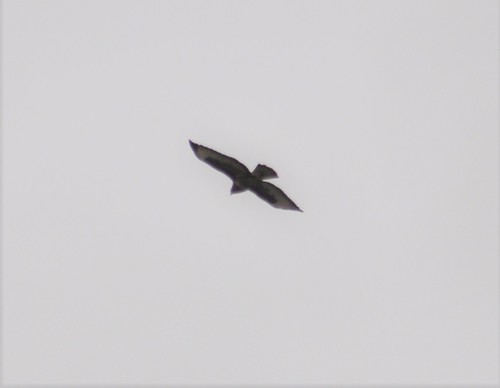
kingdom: Animalia
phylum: Chordata
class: Aves
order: Accipitriformes
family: Accipitridae
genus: Buteo
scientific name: Buteo buteo
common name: Common buzzard
